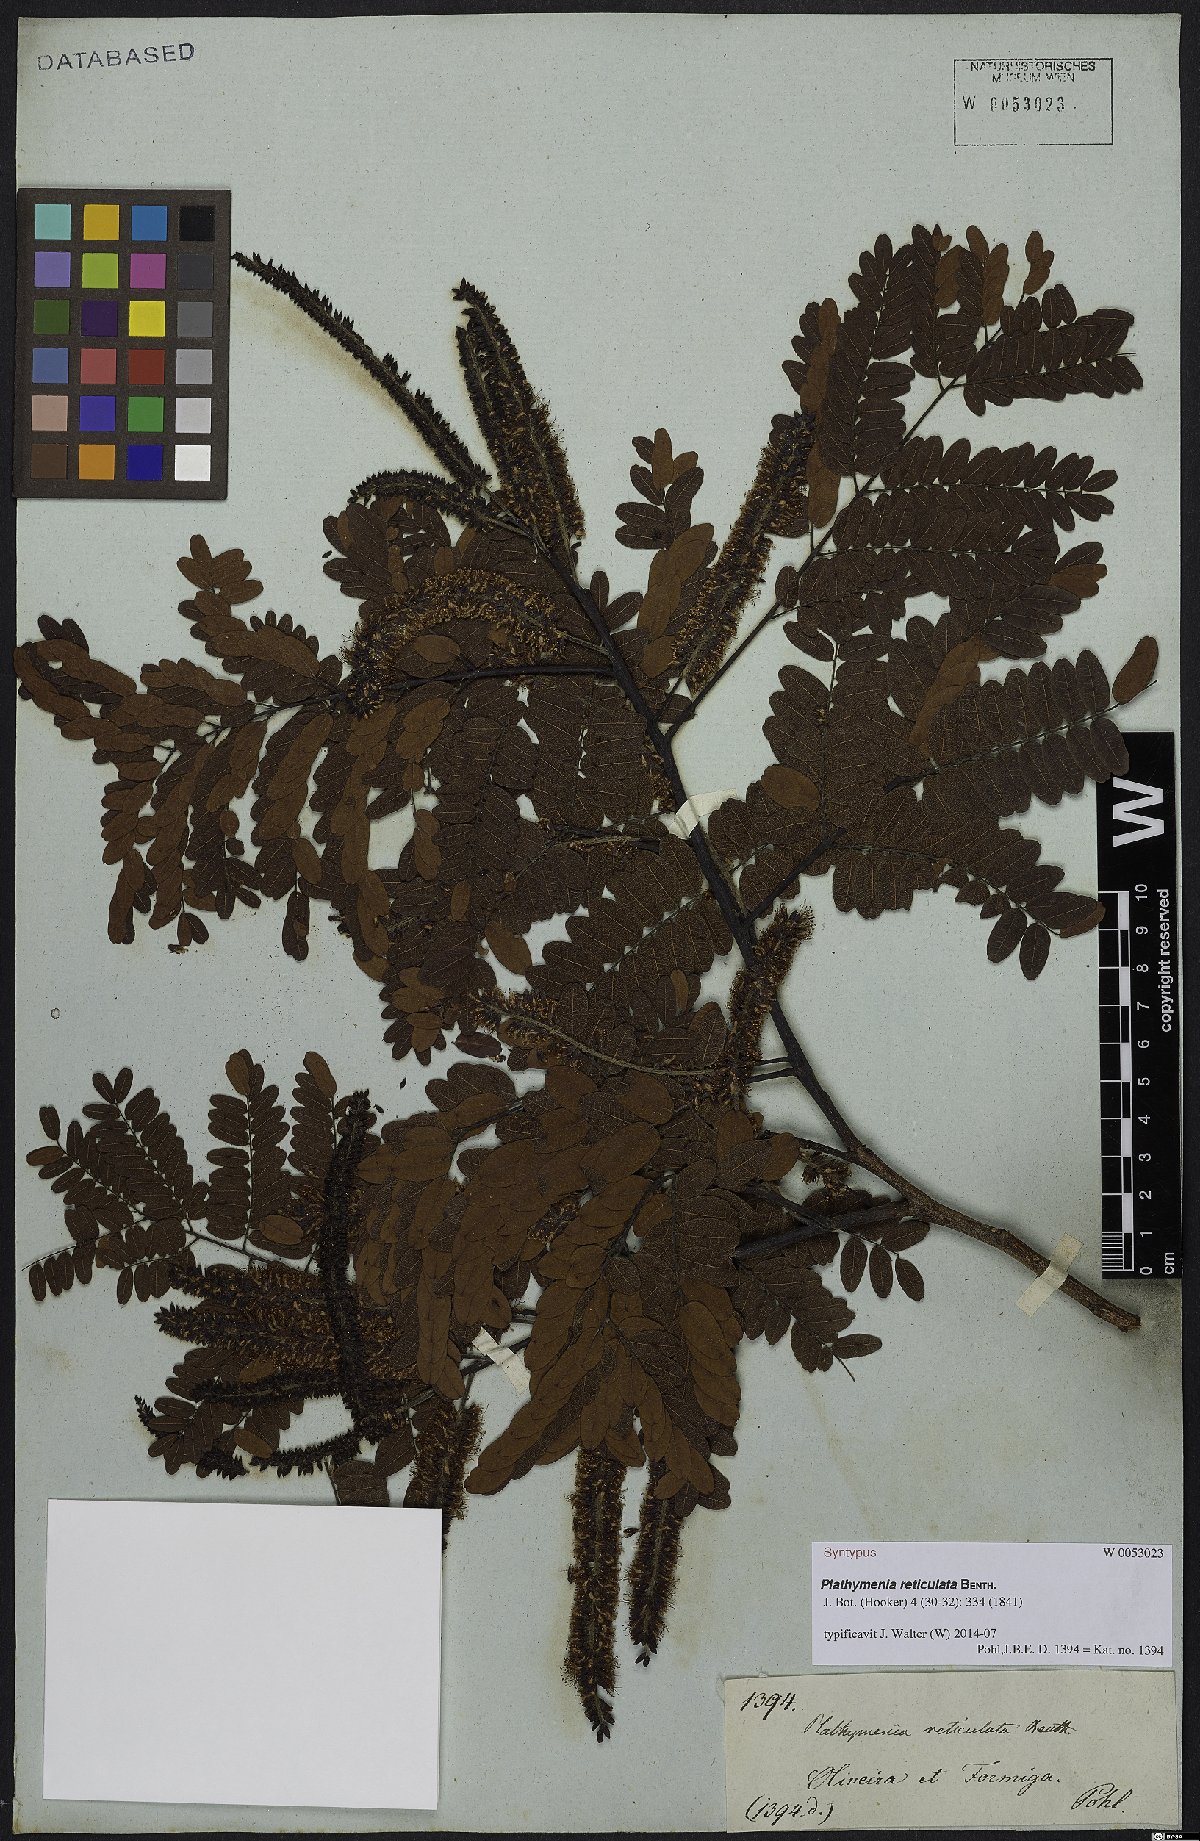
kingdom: Plantae
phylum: Tracheophyta
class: Magnoliopsida
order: Fabales
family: Fabaceae
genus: Plathymenia
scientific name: Plathymenia reticulata
